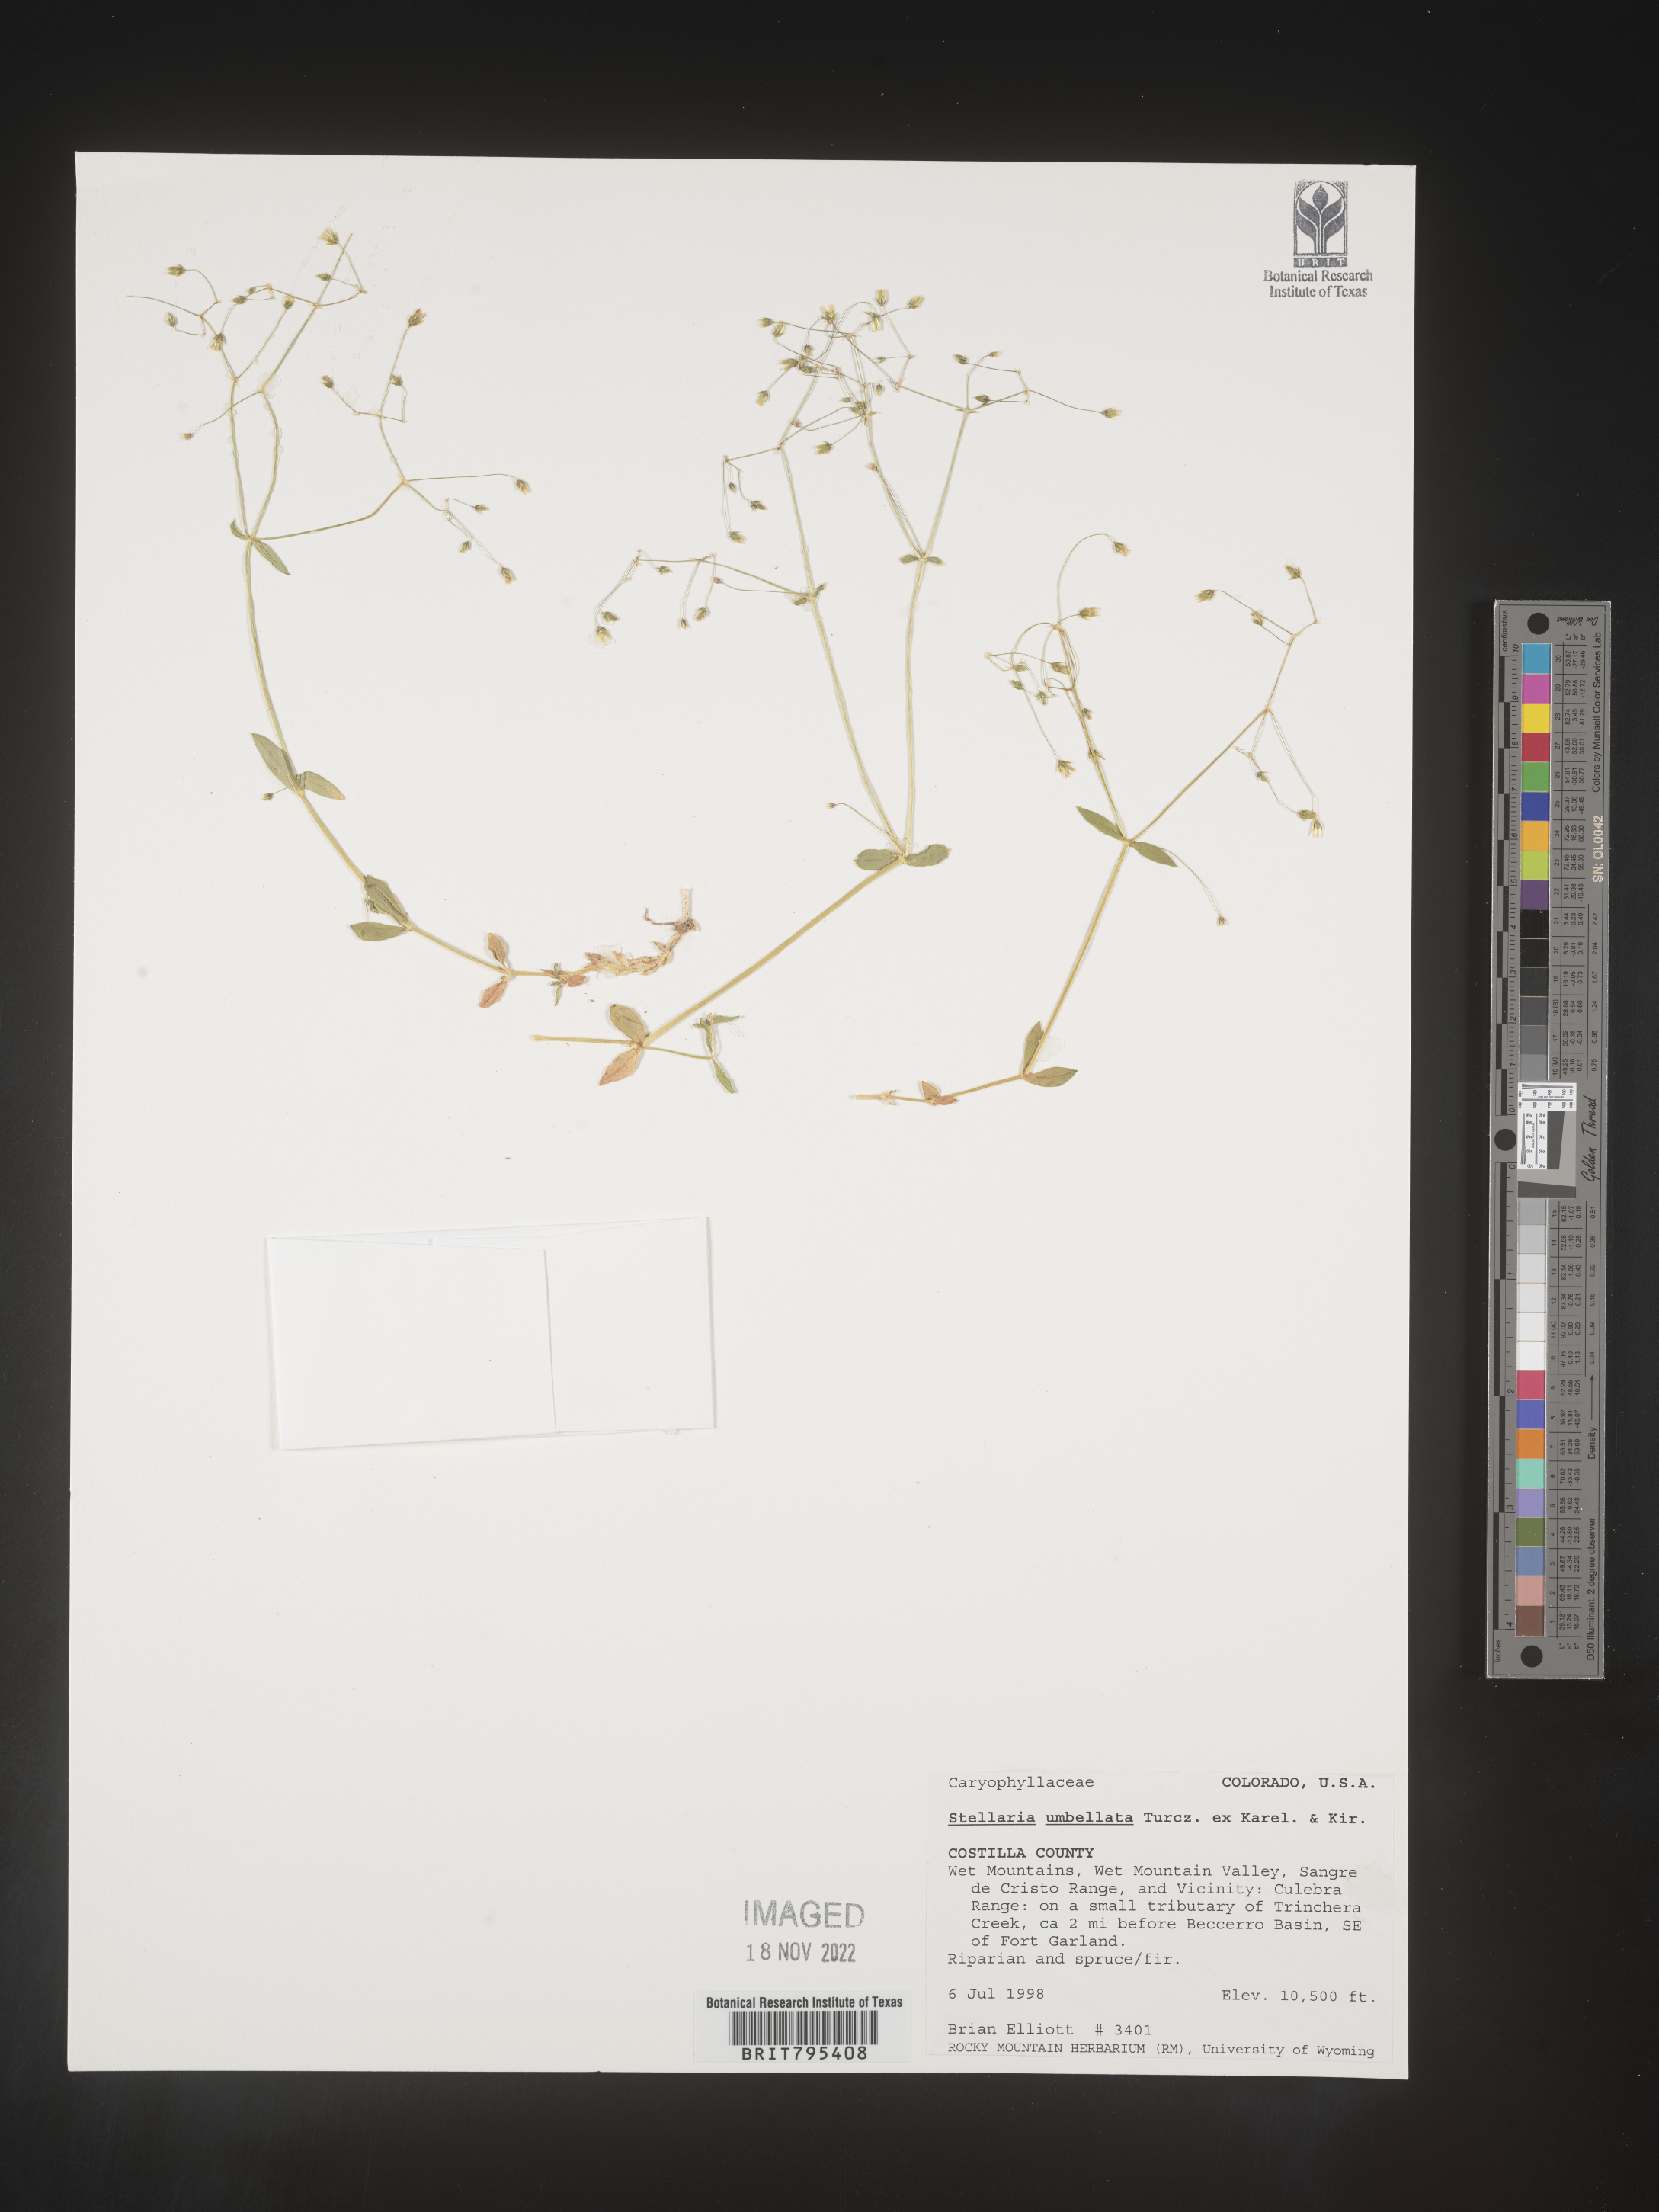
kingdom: Plantae
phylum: Tracheophyta
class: Magnoliopsida
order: Caryophyllales
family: Caryophyllaceae
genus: Stellaria
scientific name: Stellaria
